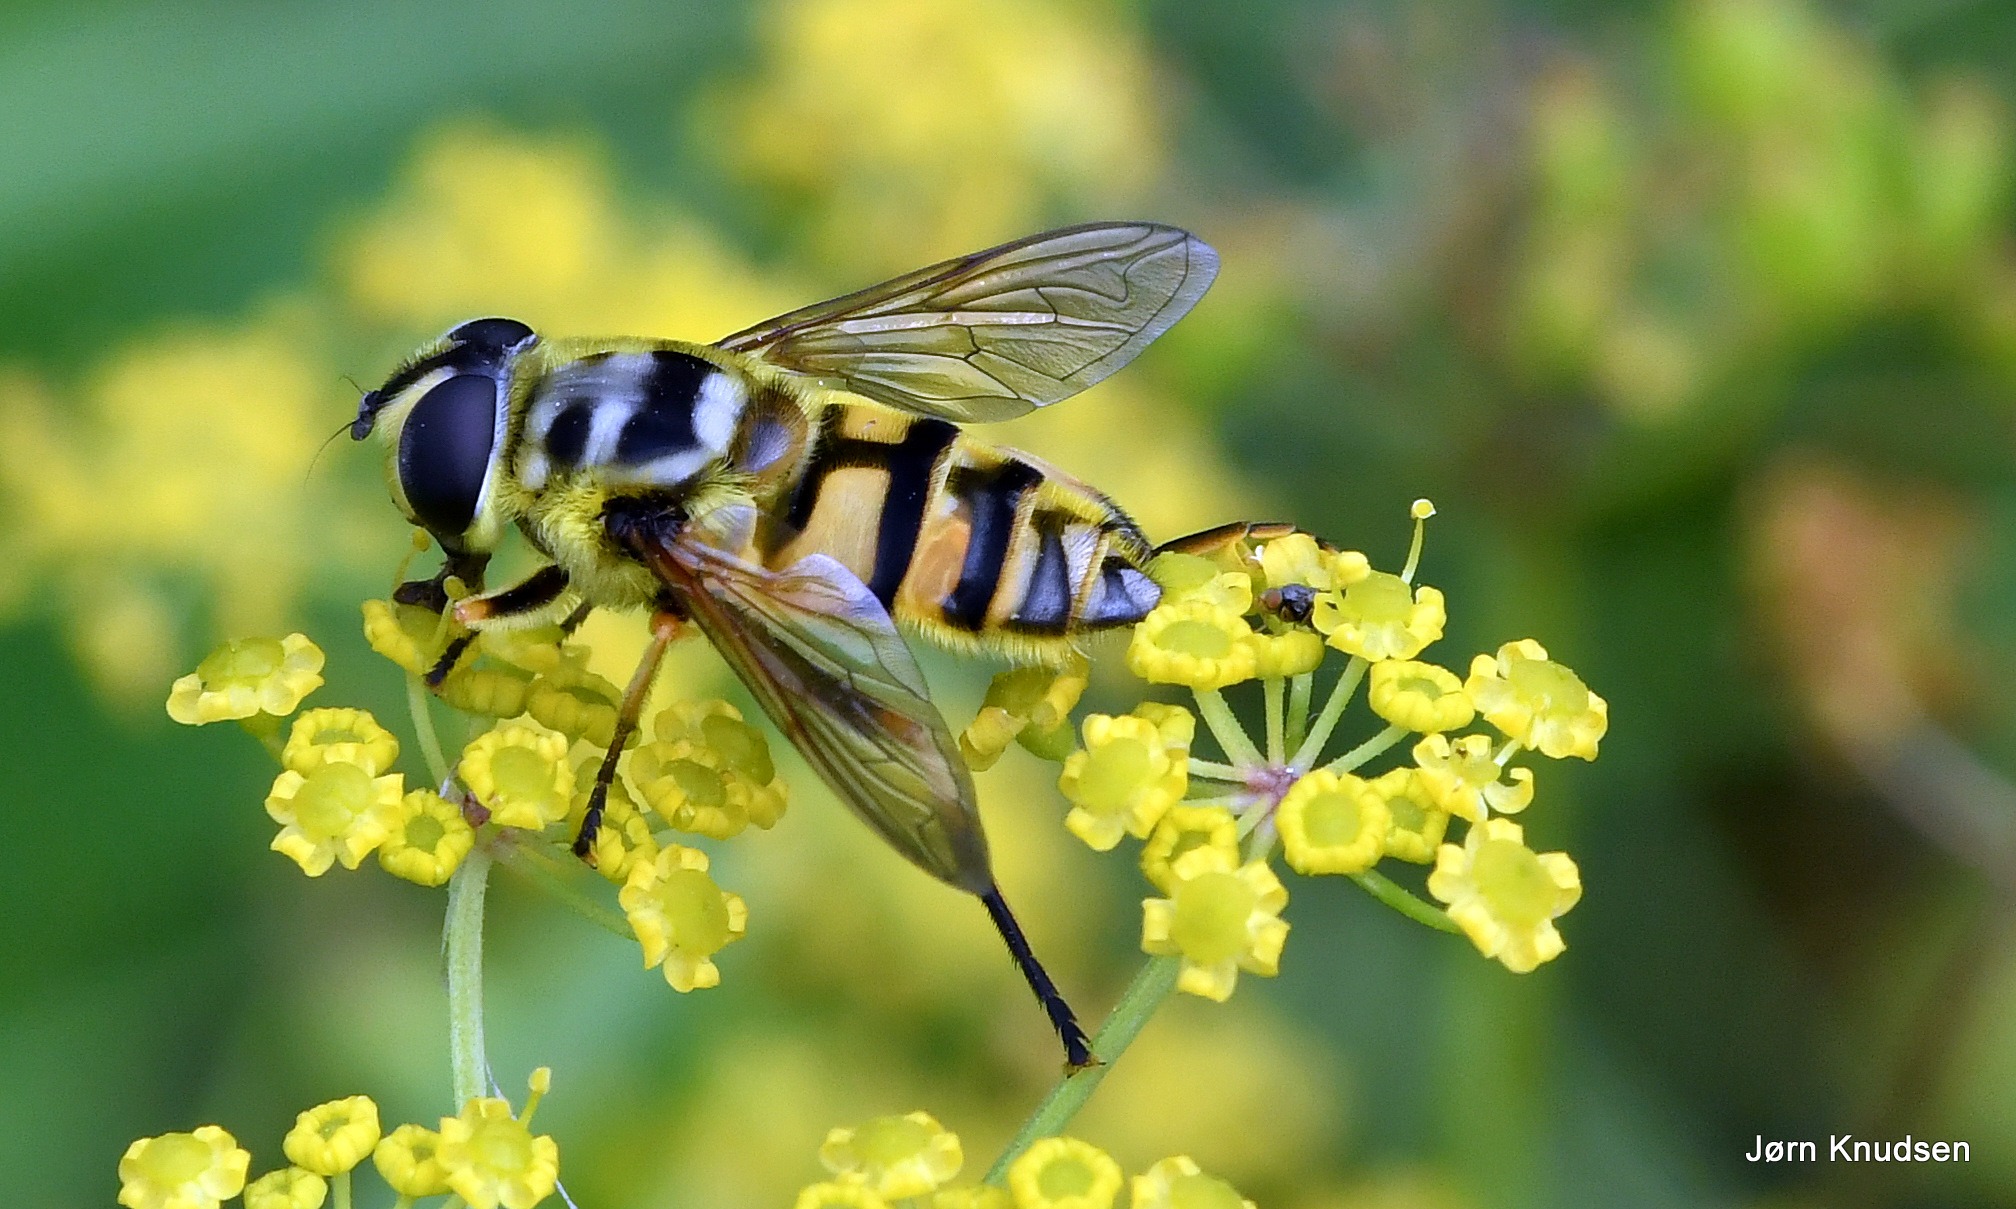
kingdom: Animalia
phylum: Arthropoda
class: Insecta
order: Diptera
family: Syrphidae
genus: Myathropa
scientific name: Myathropa florea
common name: Dødningehoved-svirreflue
